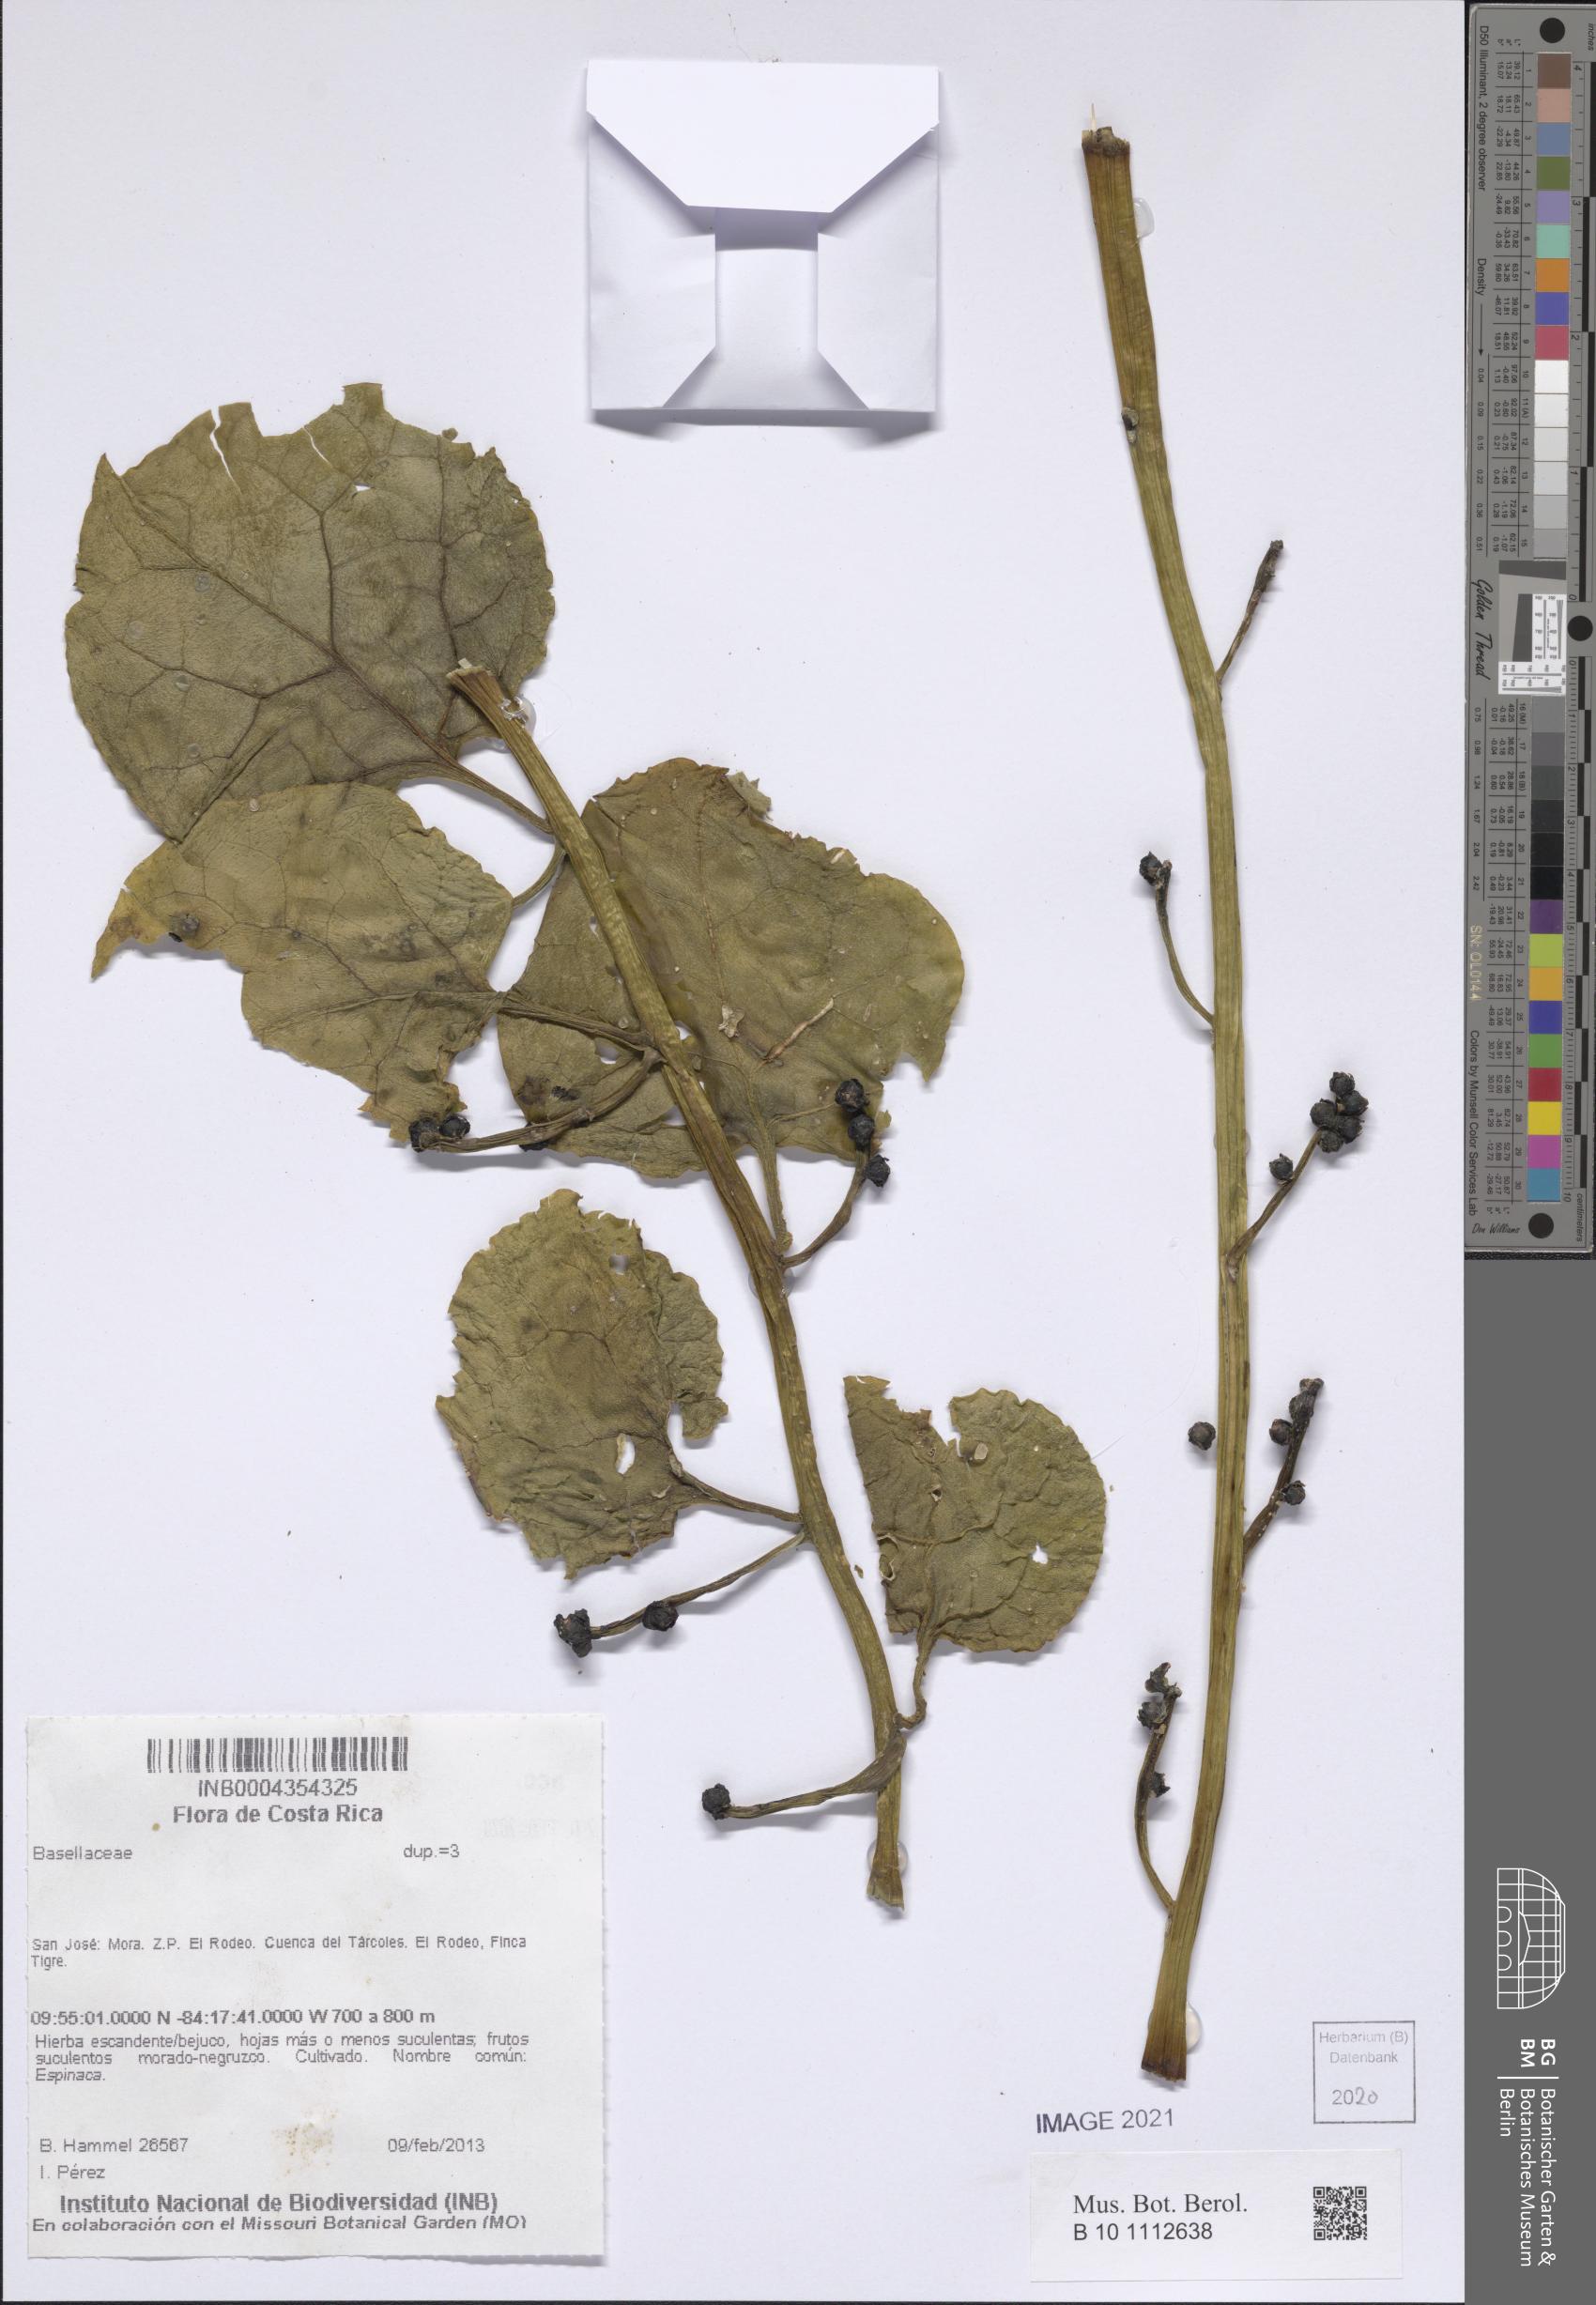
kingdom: Plantae
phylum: Tracheophyta
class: Magnoliopsida
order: Caryophyllales
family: Basellaceae
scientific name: Basellaceae
